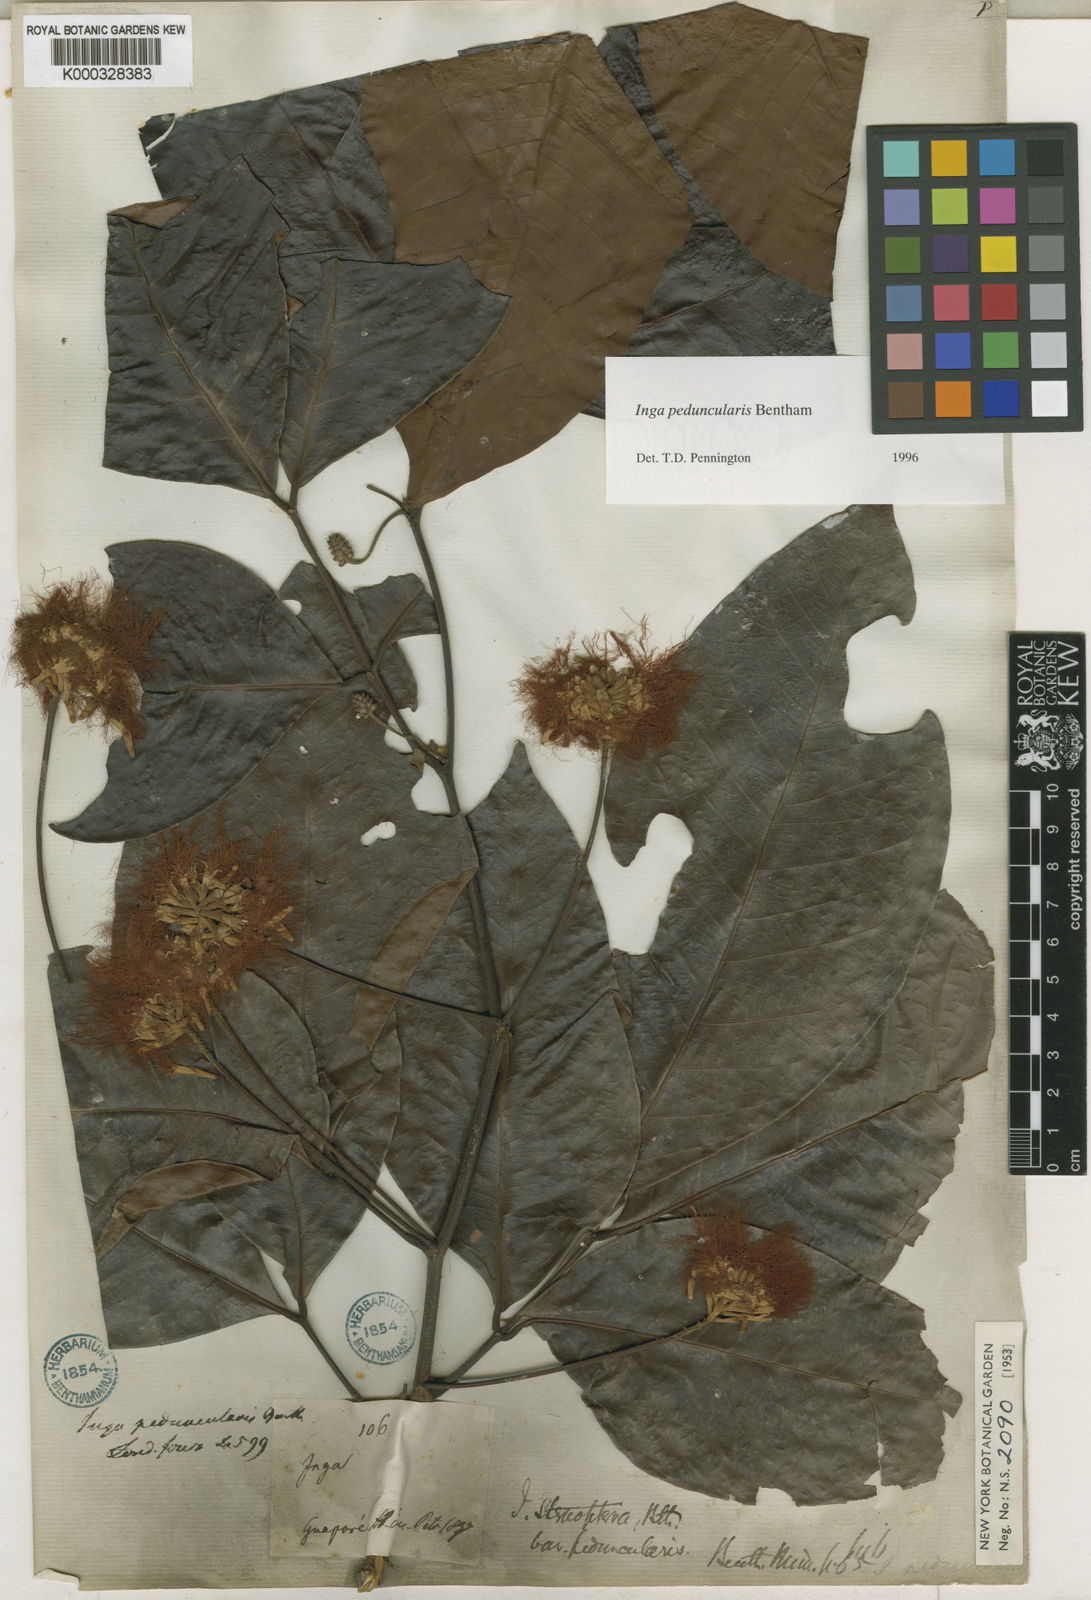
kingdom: Plantae
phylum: Tracheophyta
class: Magnoliopsida
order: Fabales
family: Fabaceae
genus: Inga
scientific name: Inga peduncularis
